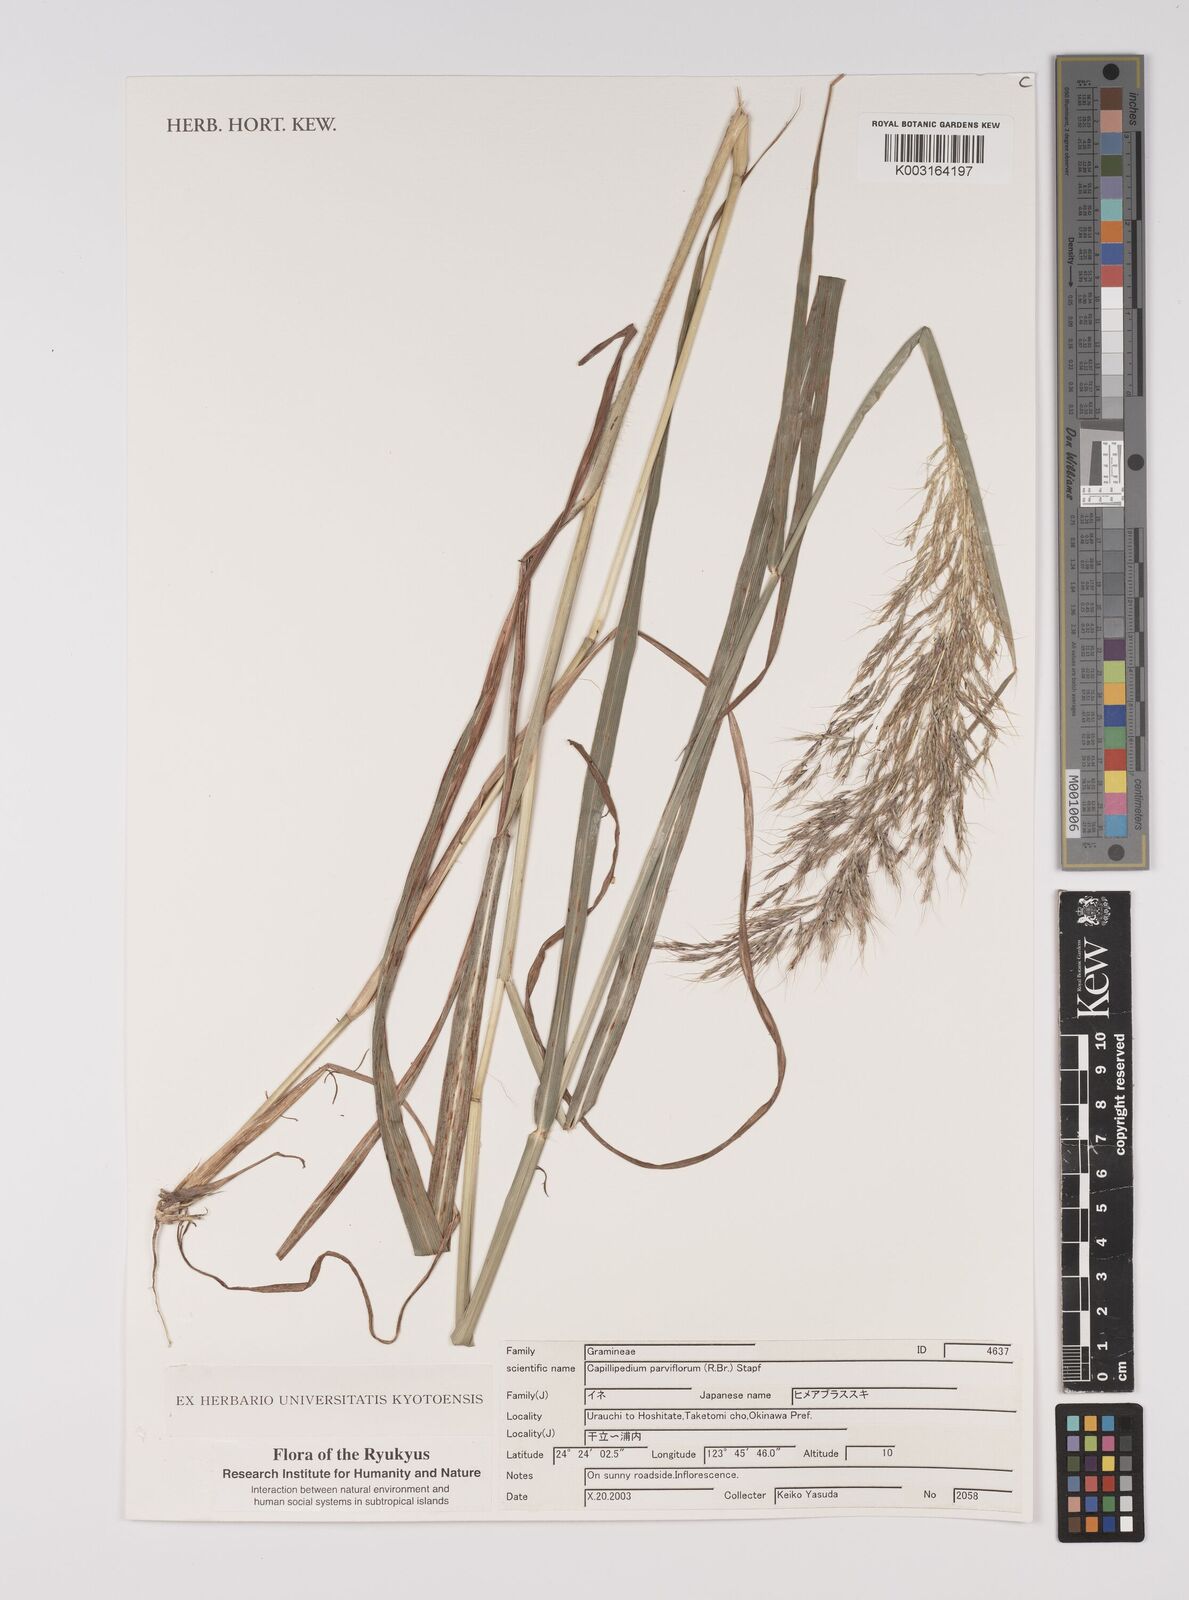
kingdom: Plantae
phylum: Tracheophyta
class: Liliopsida
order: Poales
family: Poaceae
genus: Capillipedium
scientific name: Capillipedium parviflorum
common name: Golden-beard
